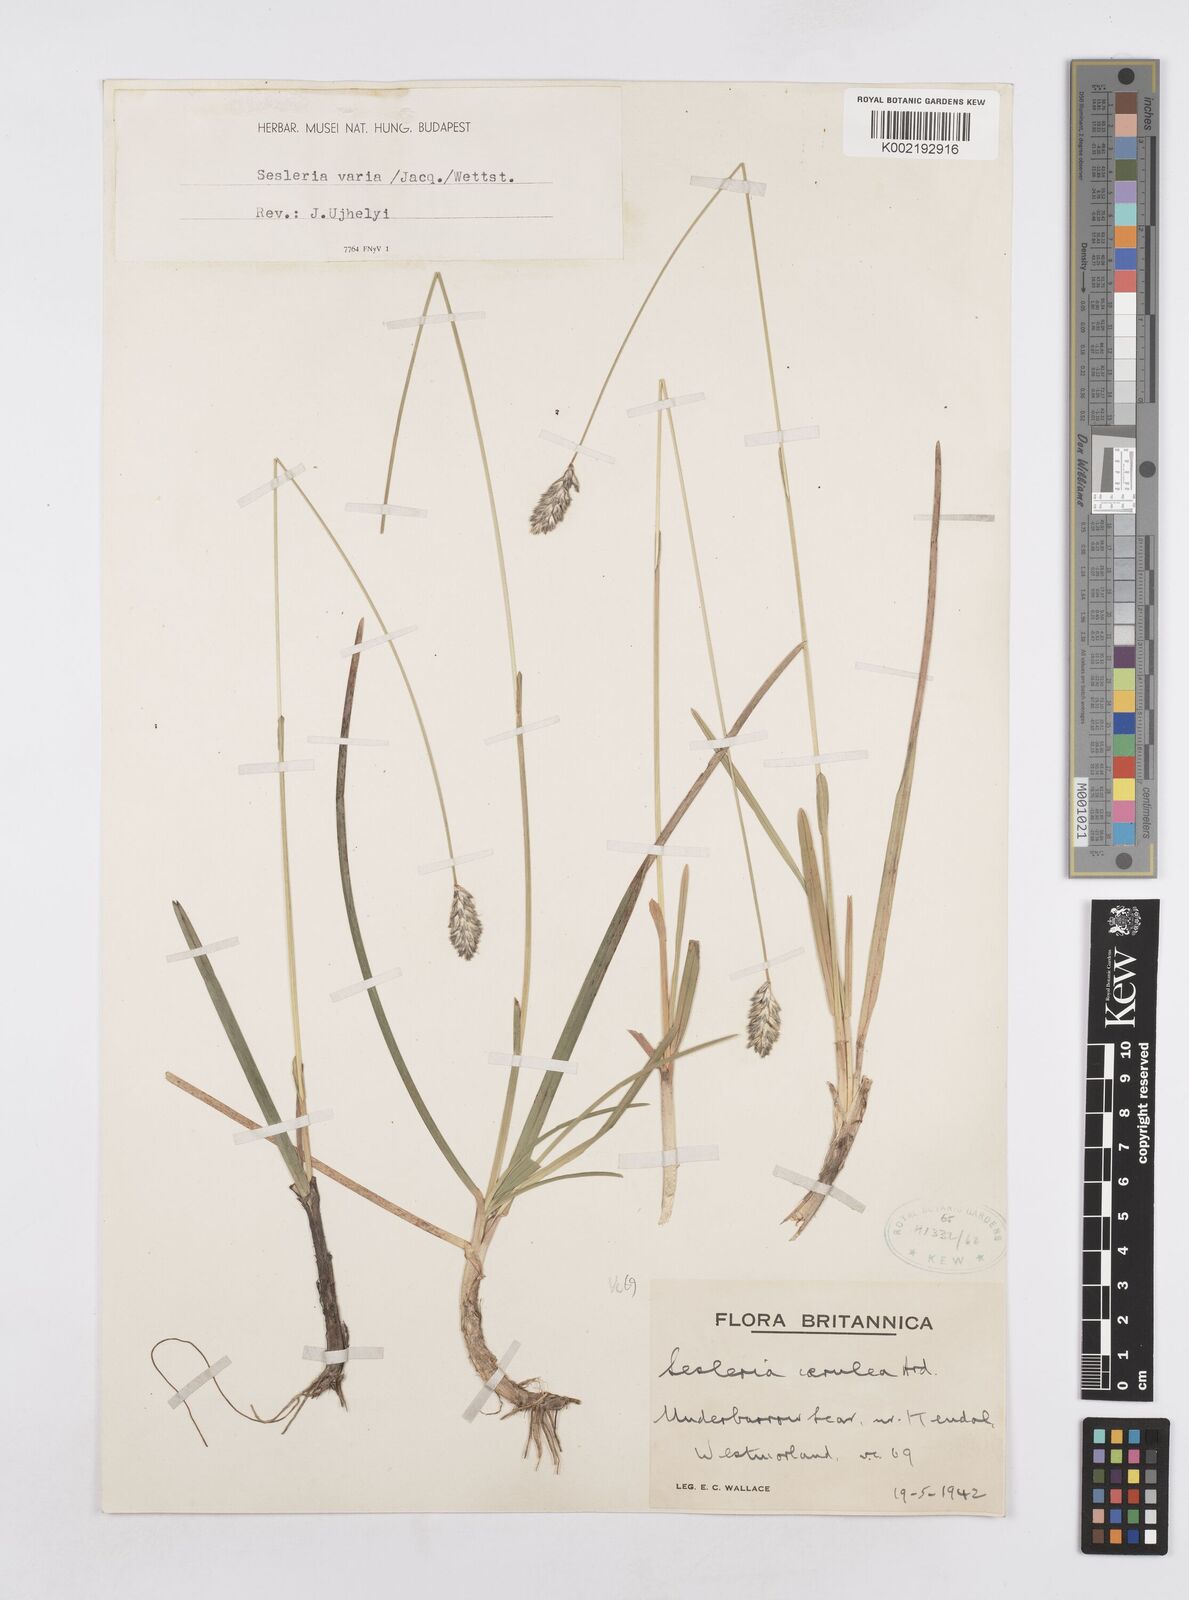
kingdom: Plantae
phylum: Tracheophyta
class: Liliopsida
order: Poales
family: Poaceae
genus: Sesleria
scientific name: Sesleria caerulea
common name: Blue moor-grass
